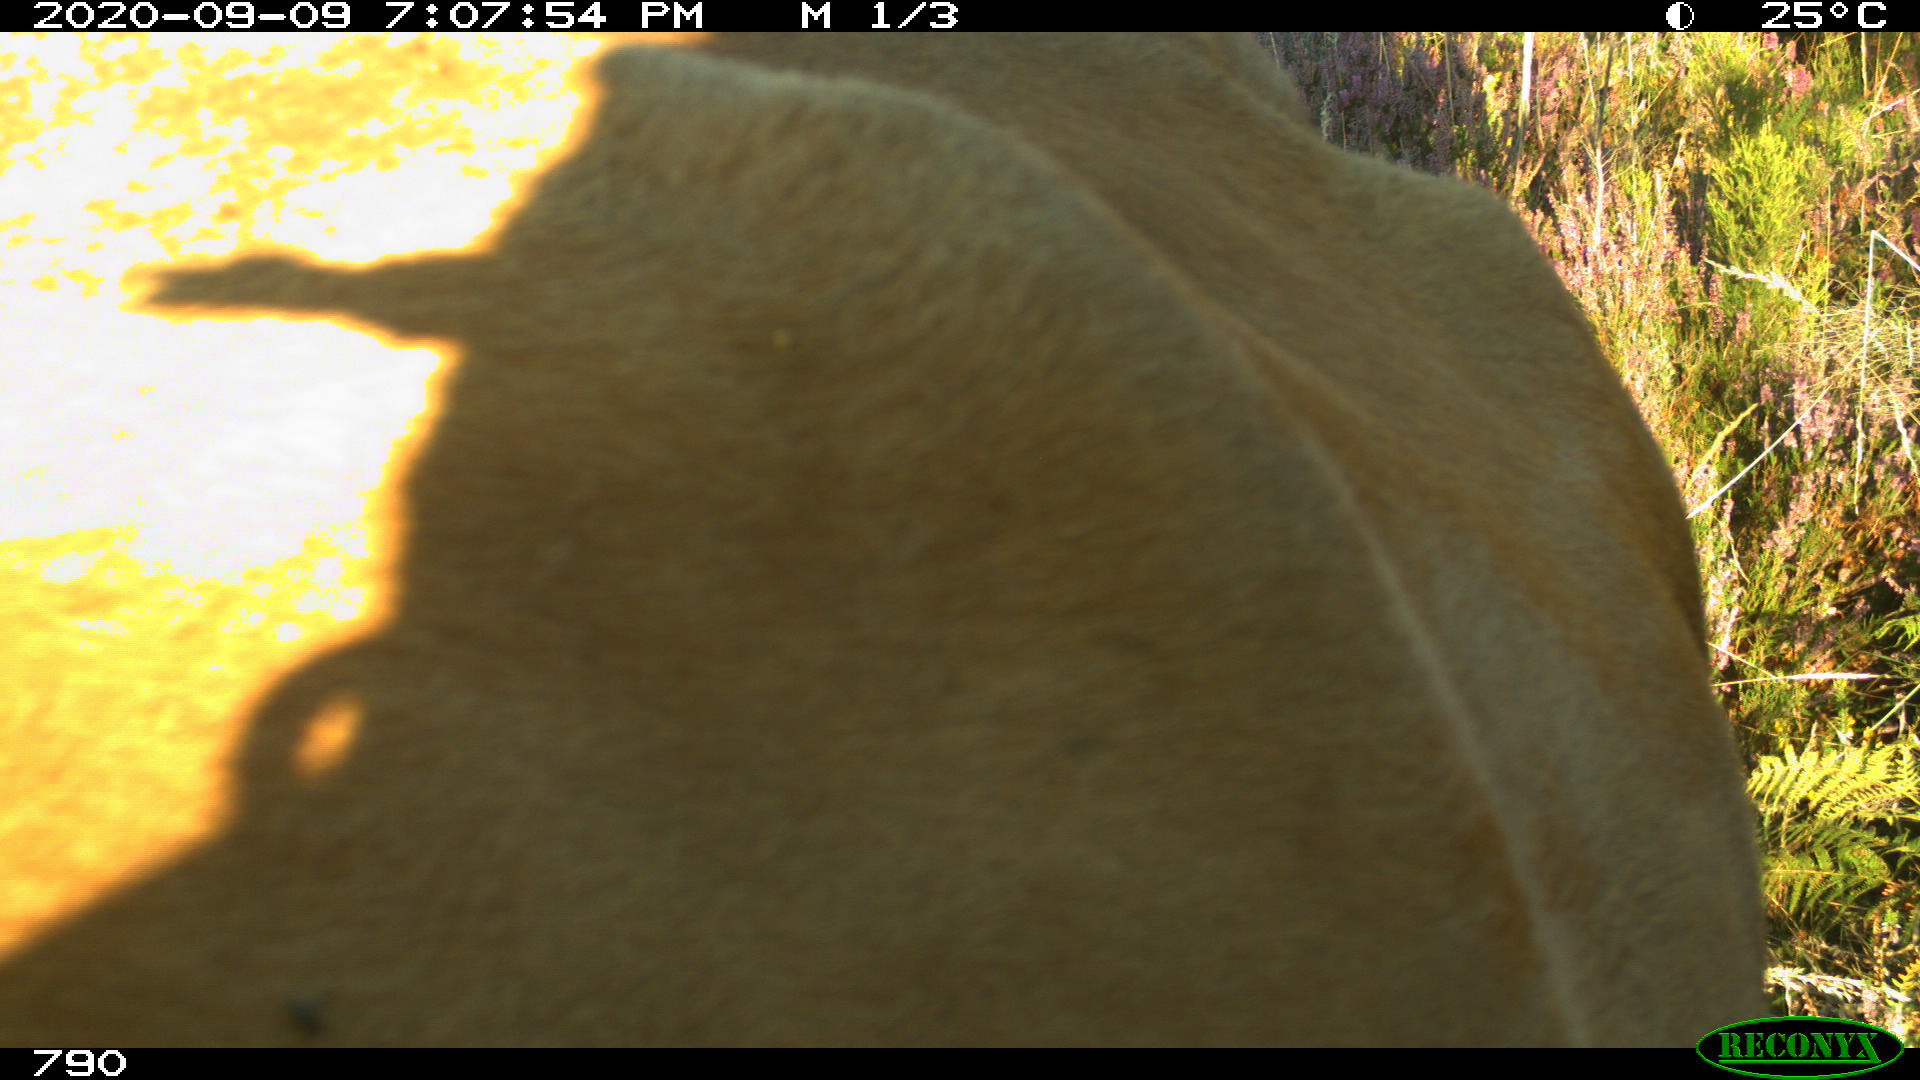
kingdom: Animalia
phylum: Chordata
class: Mammalia
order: Artiodactyla
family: Bovidae
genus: Bos
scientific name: Bos taurus
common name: Domesticated cattle
